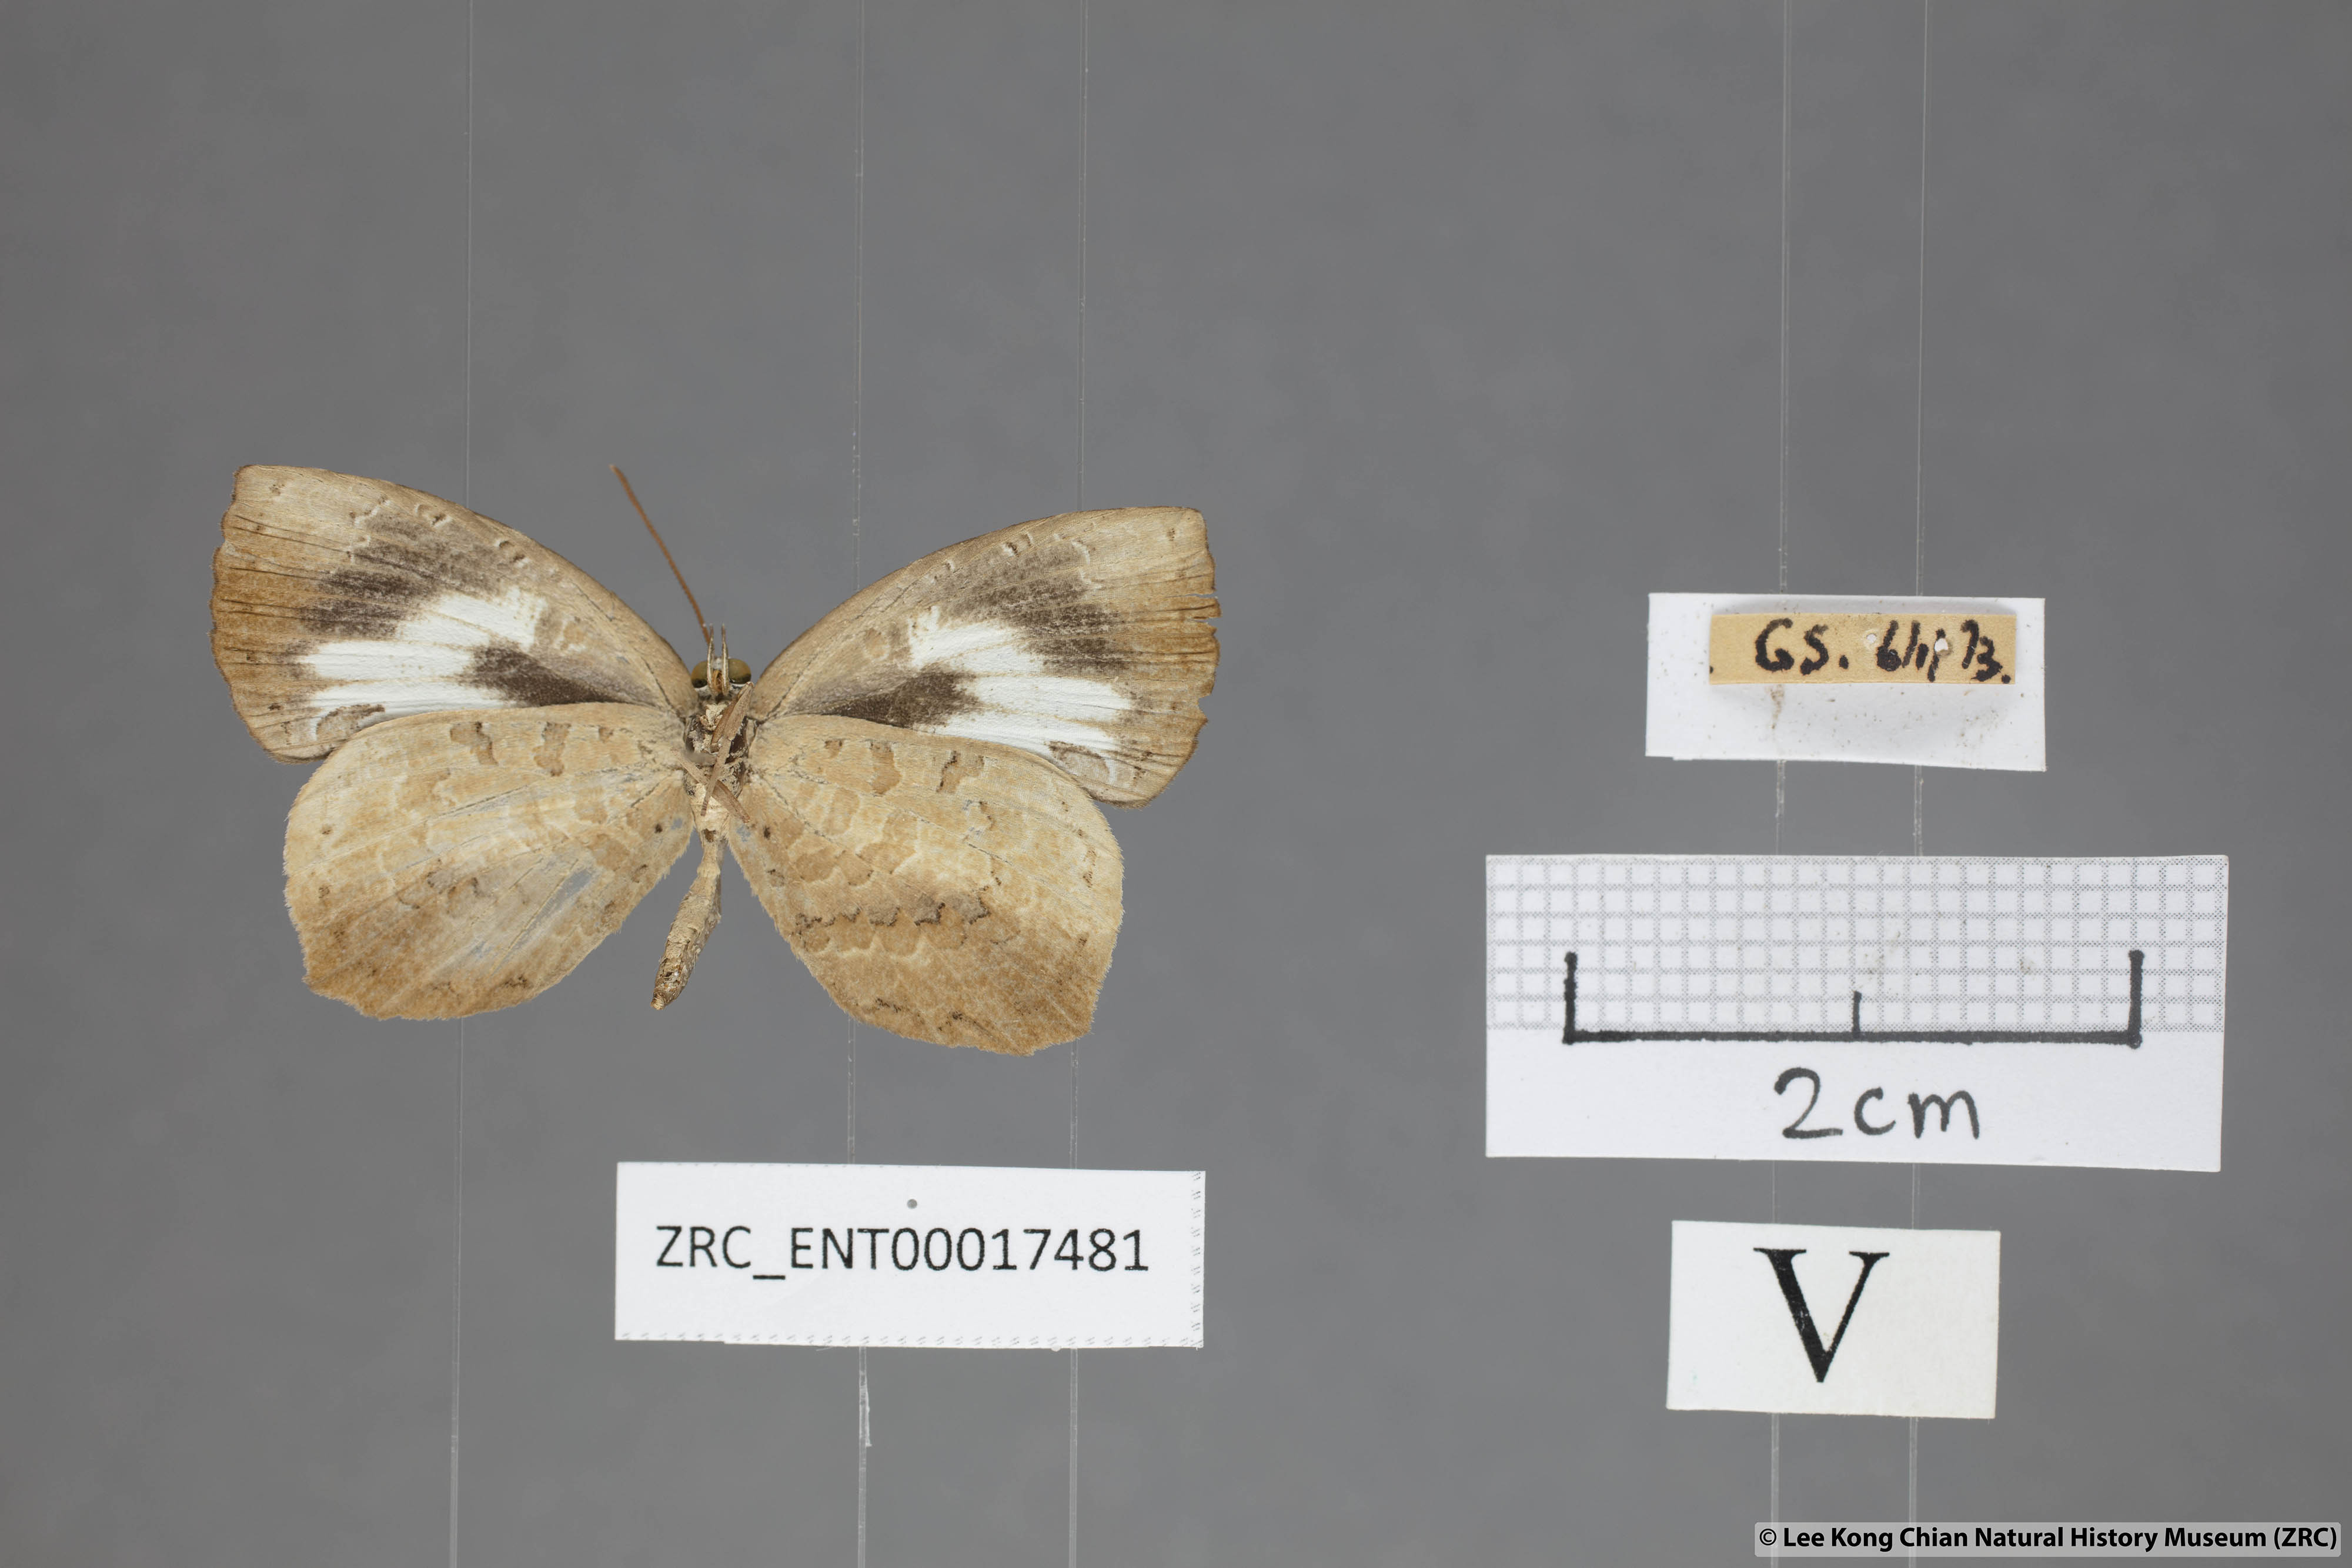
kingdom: Animalia
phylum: Arthropoda
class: Insecta
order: Lepidoptera
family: Lycaenidae
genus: Miletus
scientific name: Miletus symethus
